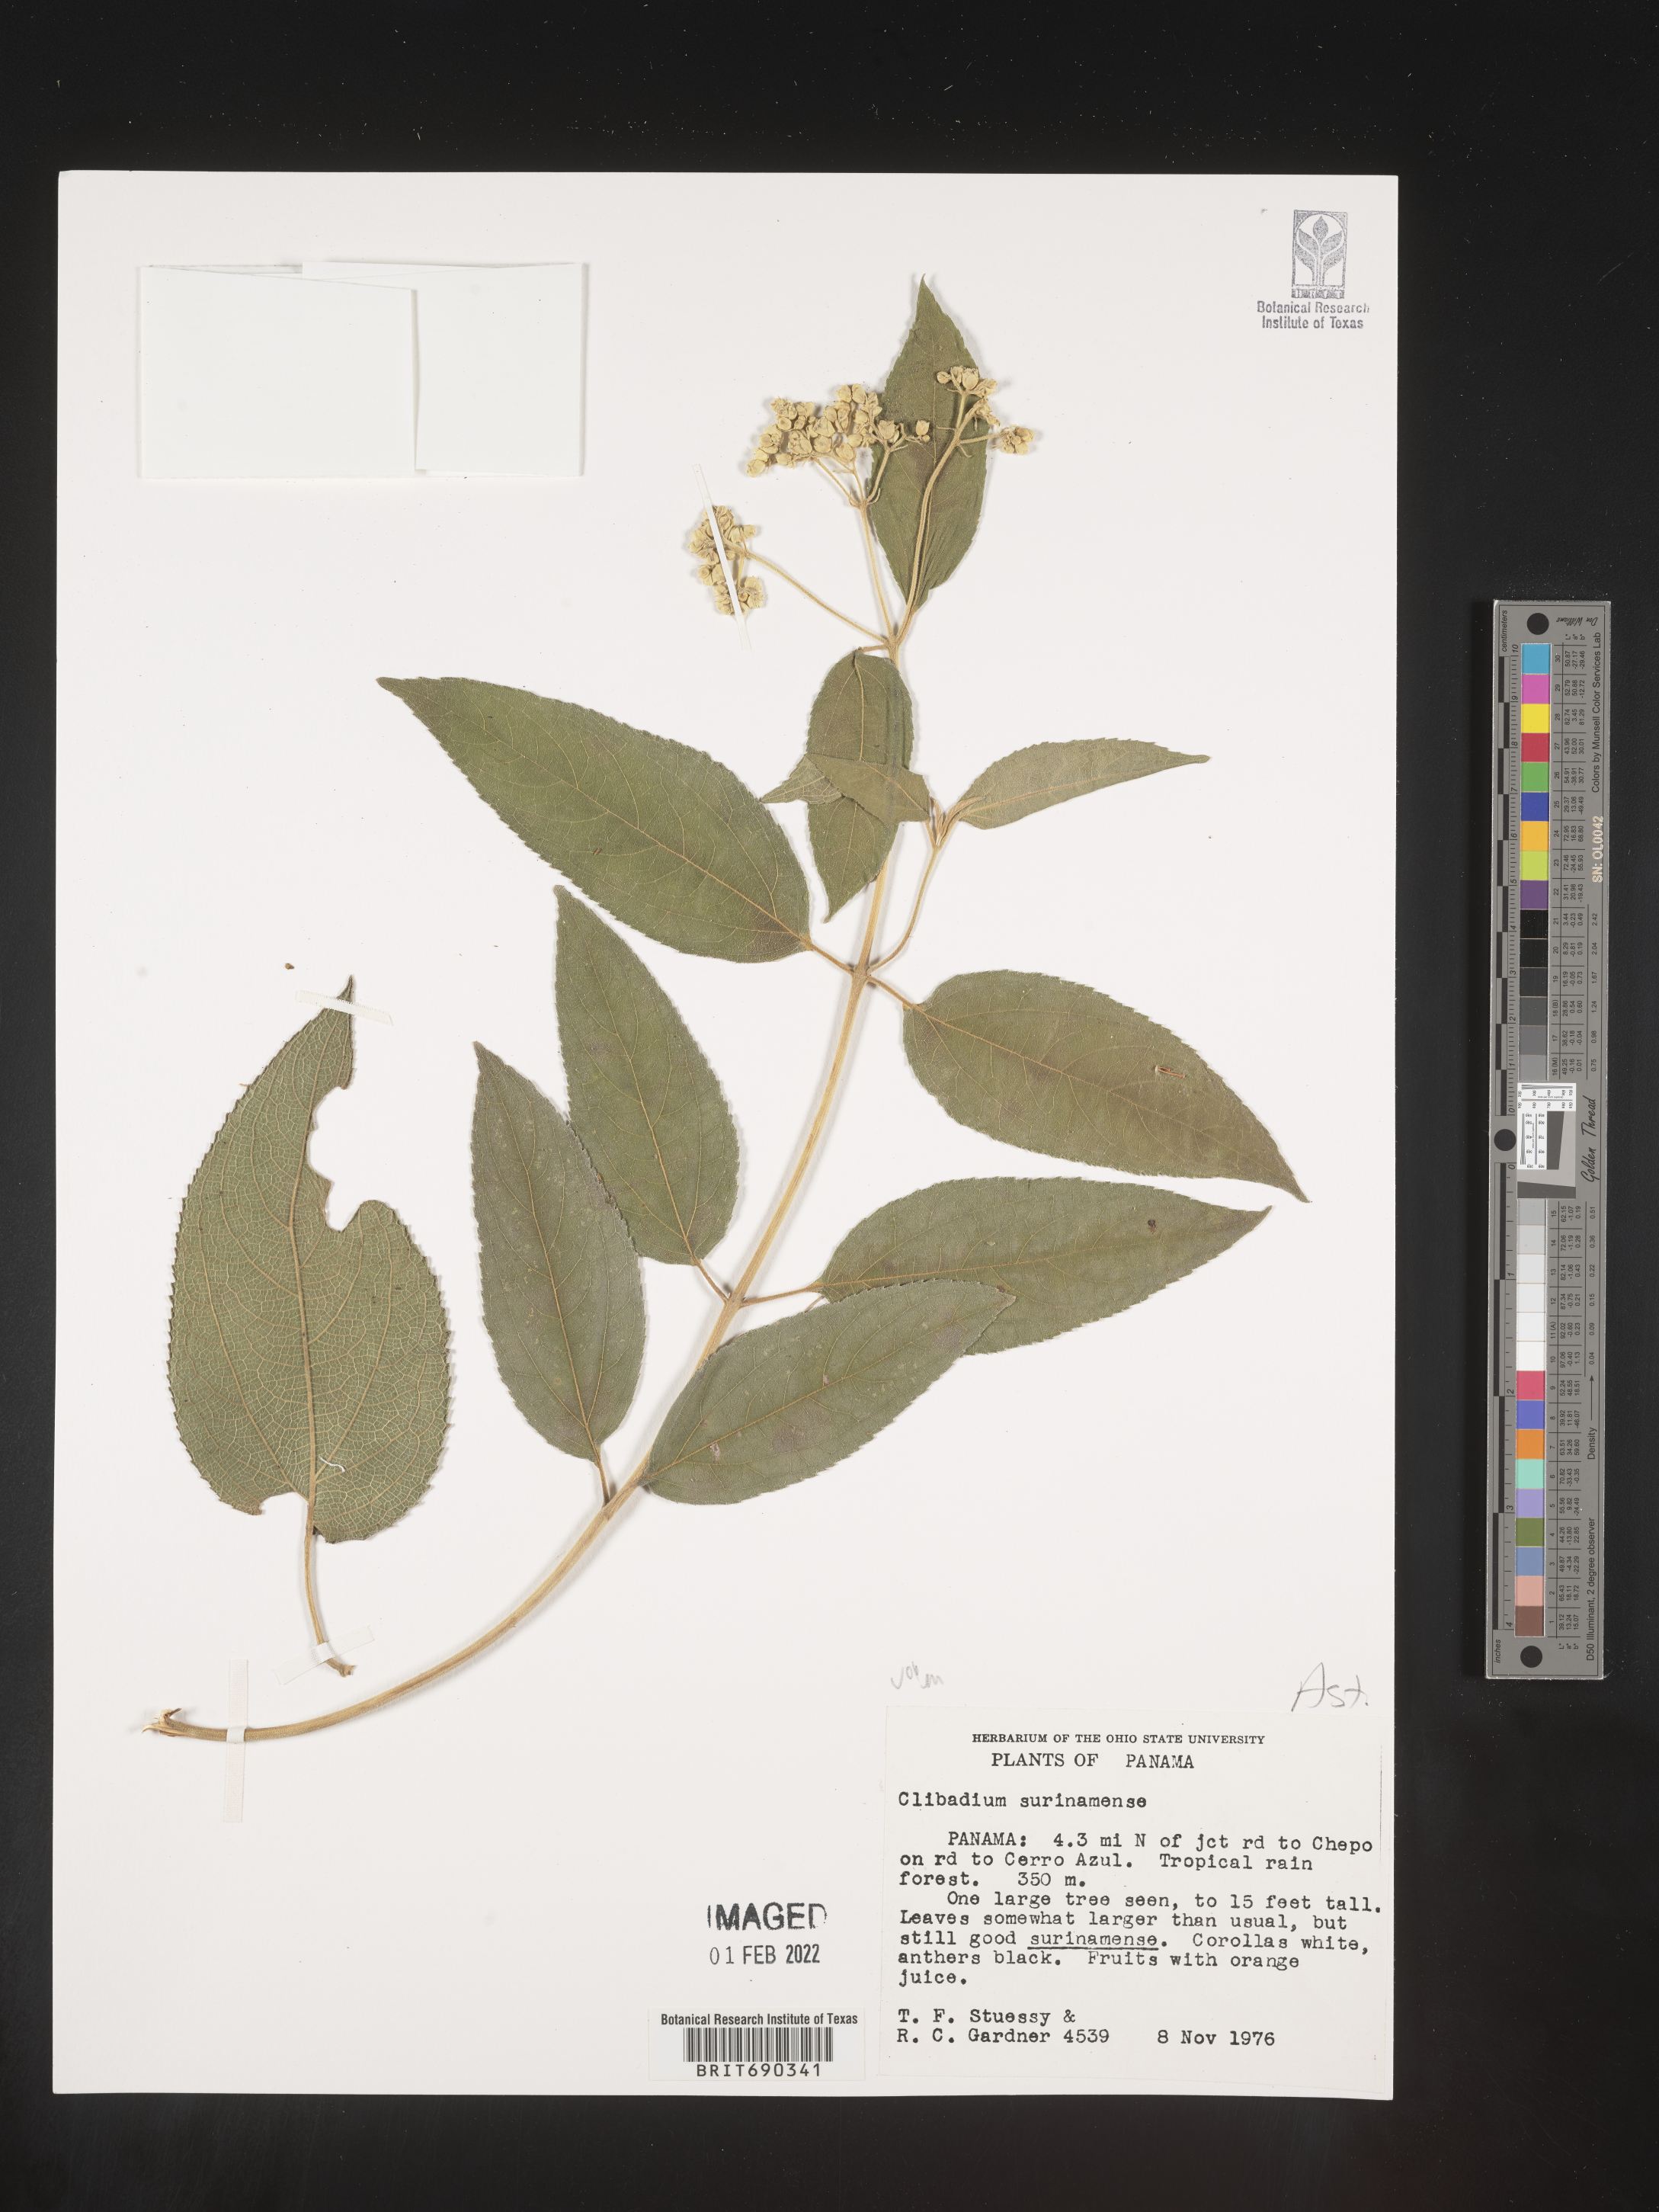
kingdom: Plantae
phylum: Tracheophyta
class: Magnoliopsida
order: Asterales
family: Asteraceae
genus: Clibadium
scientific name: Clibadium
